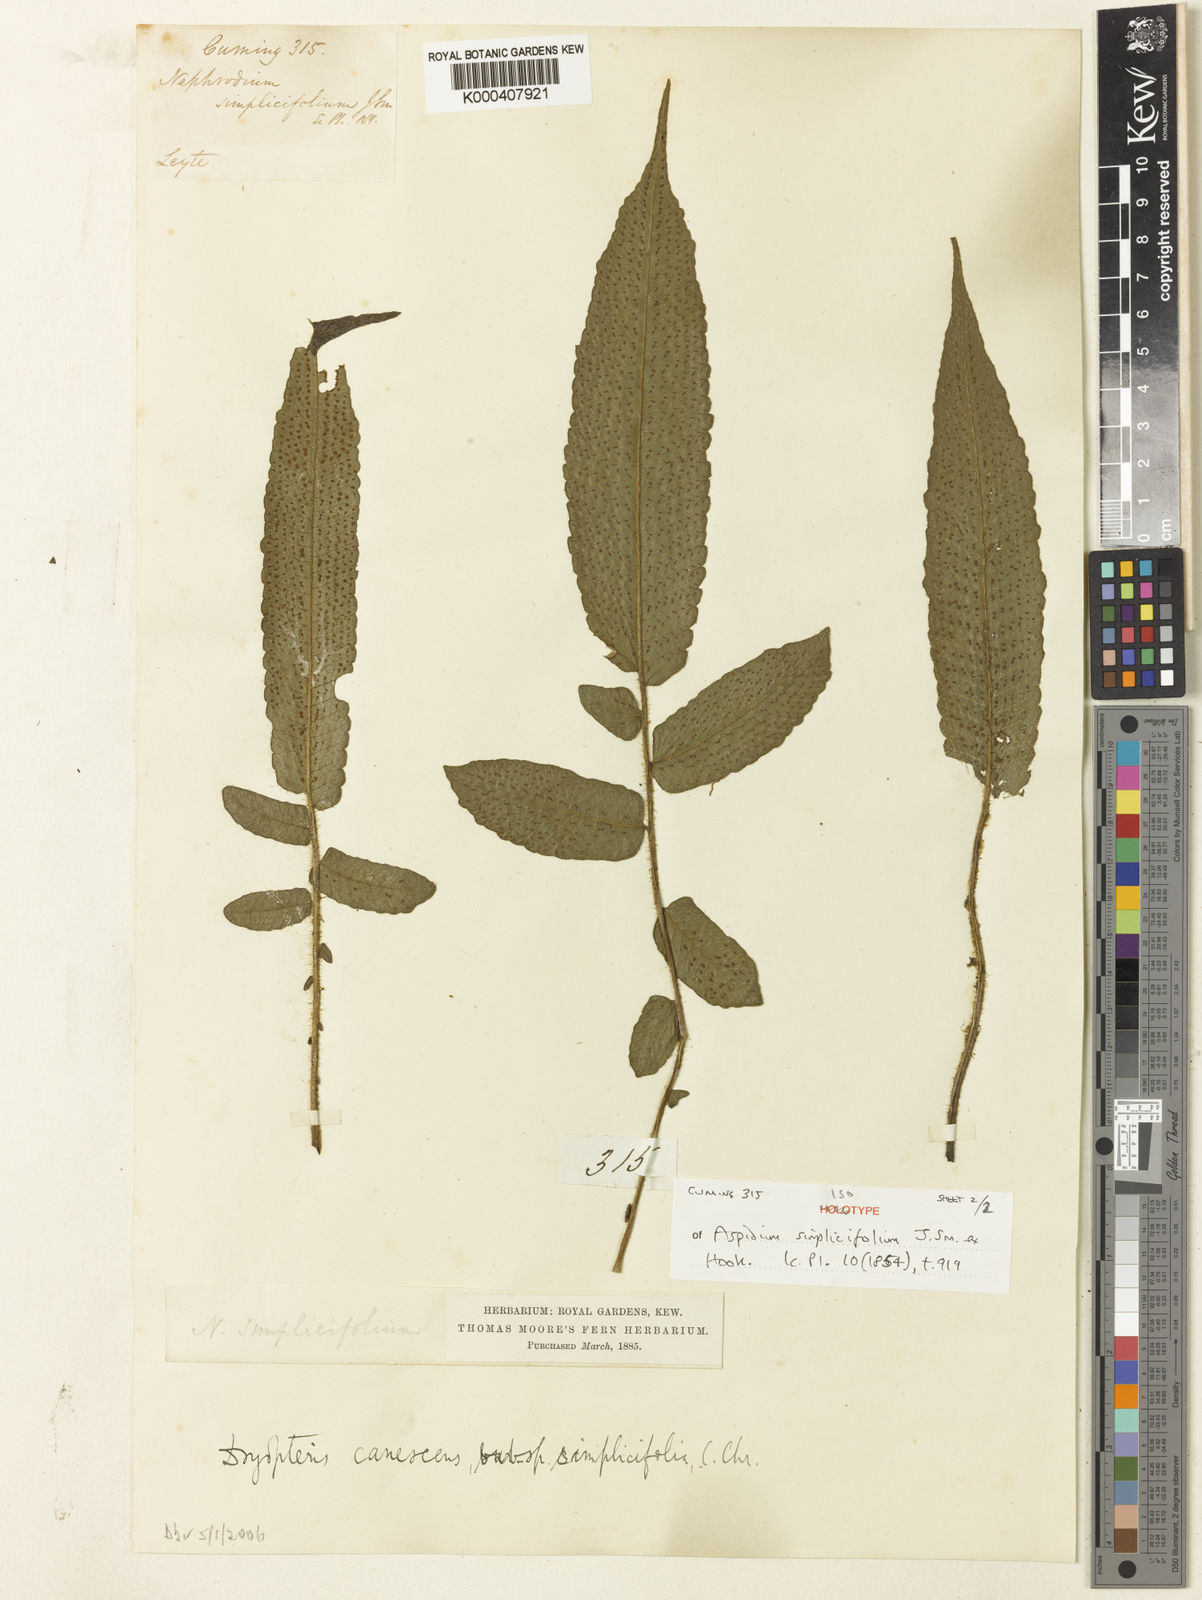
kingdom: Plantae
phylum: Tracheophyta
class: Polypodiopsida
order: Polypodiales
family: Thelypteridaceae
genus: Sphaerostephanos
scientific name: Sphaerostephanos simplicifolius
